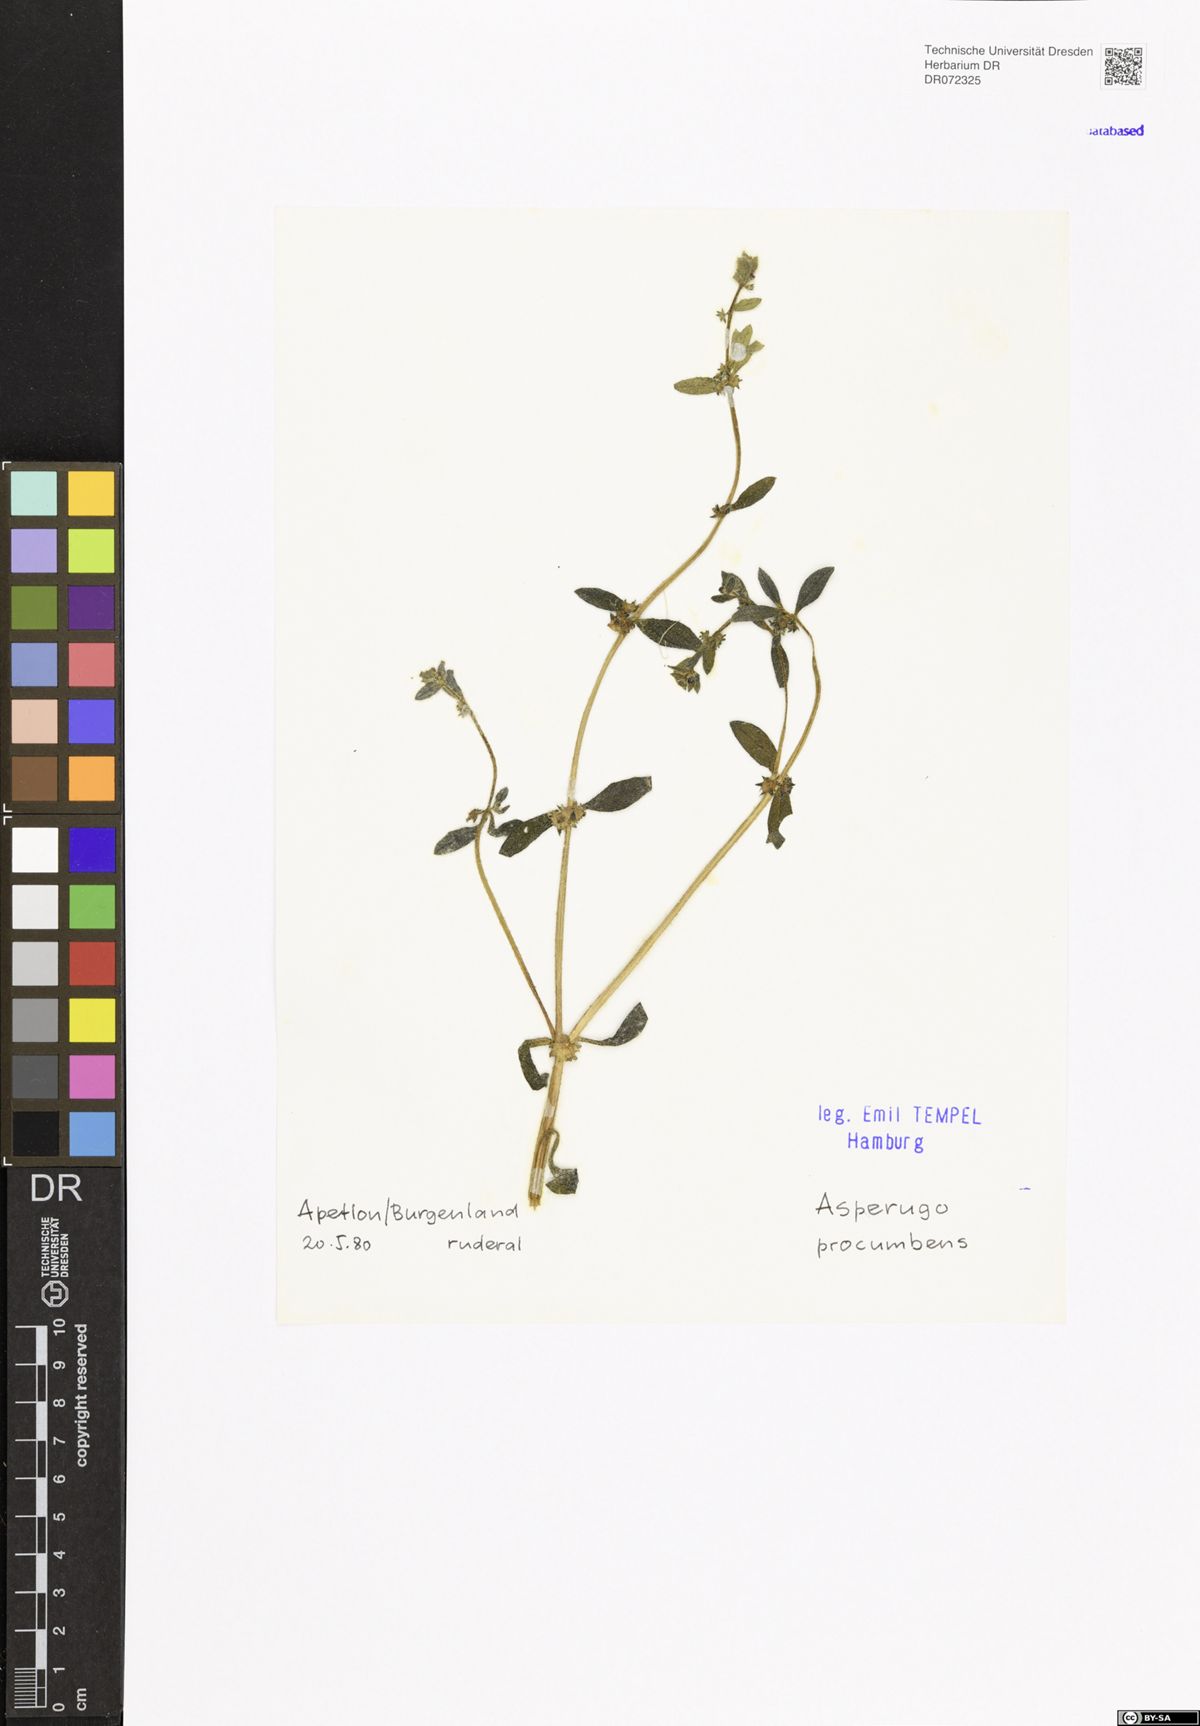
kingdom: Plantae
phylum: Tracheophyta
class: Magnoliopsida
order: Boraginales
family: Boraginaceae
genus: Asperugo
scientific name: Asperugo procumbens
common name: Madwort
